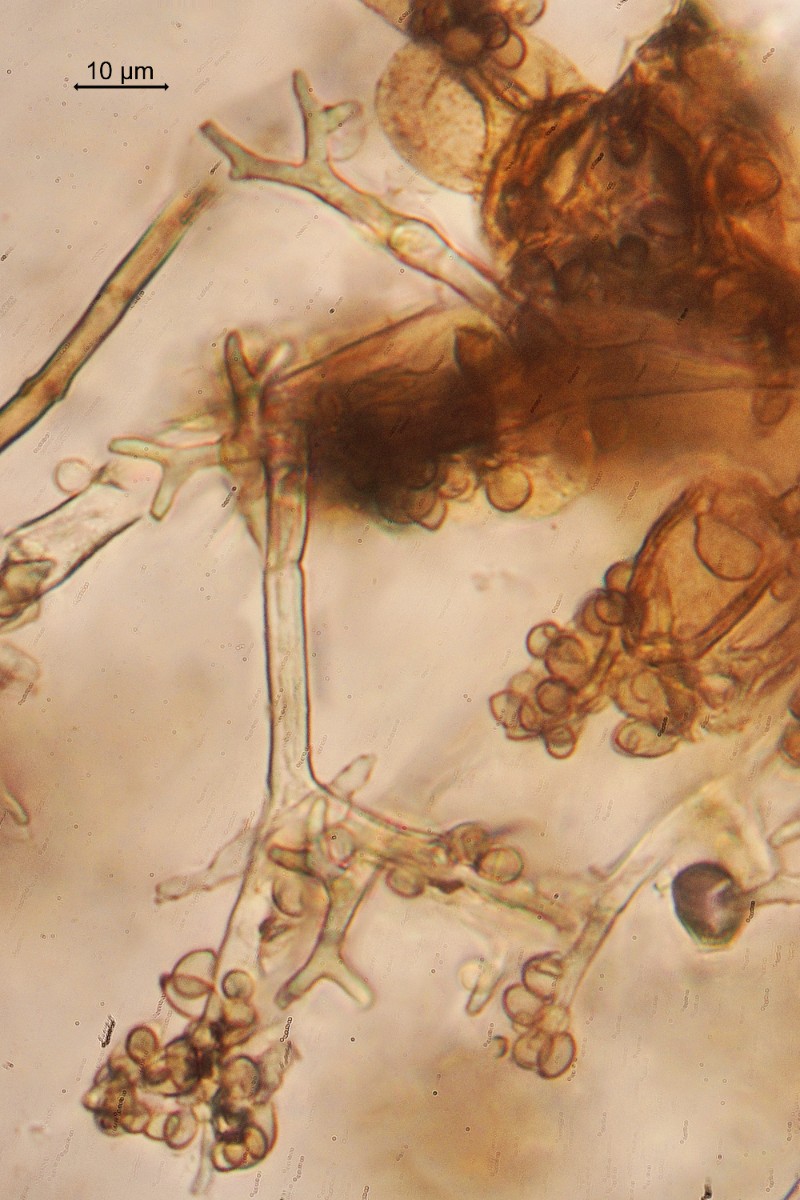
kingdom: Chromista
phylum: Oomycota
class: Peronosporea
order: Peronosporales
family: Peronosporaceae
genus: Pseudoperonospora
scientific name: Pseudoperonospora cubensis
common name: Cucurbit downy mildew
